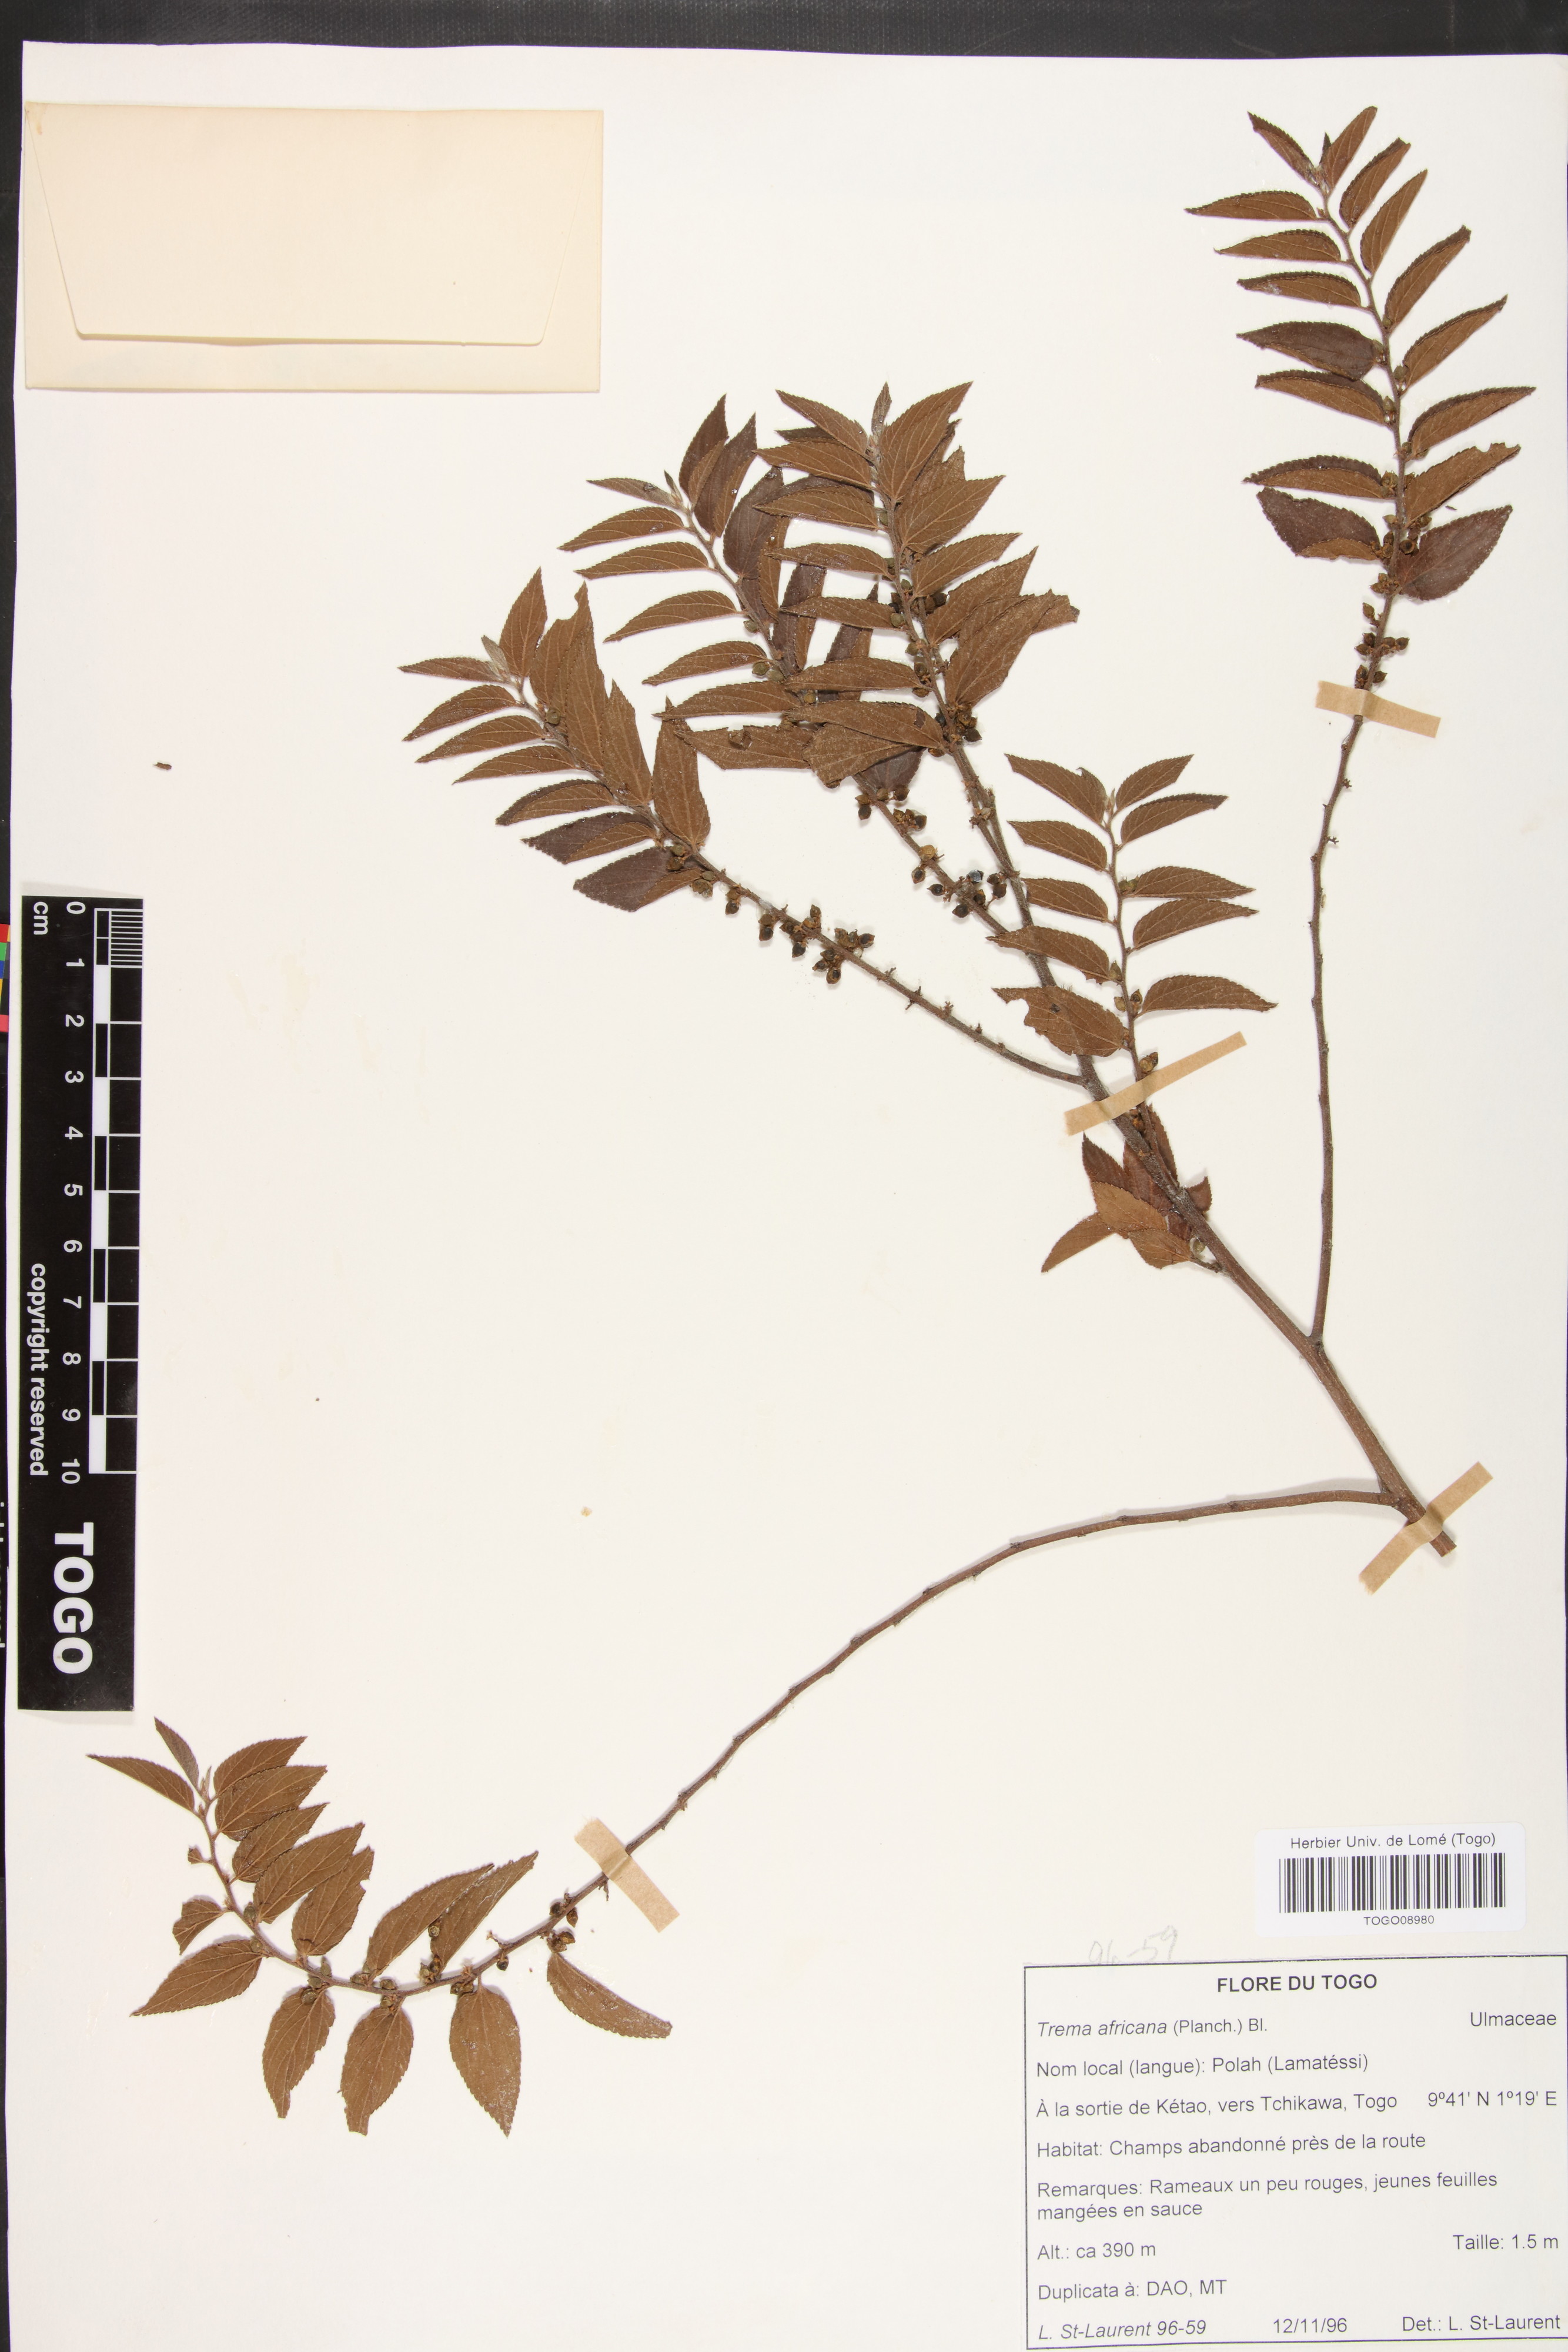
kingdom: Plantae
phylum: Tracheophyta
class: Magnoliopsida
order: Rosales
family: Cannabaceae
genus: Trema
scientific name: Trema orientale
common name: Indian charcoal tree
